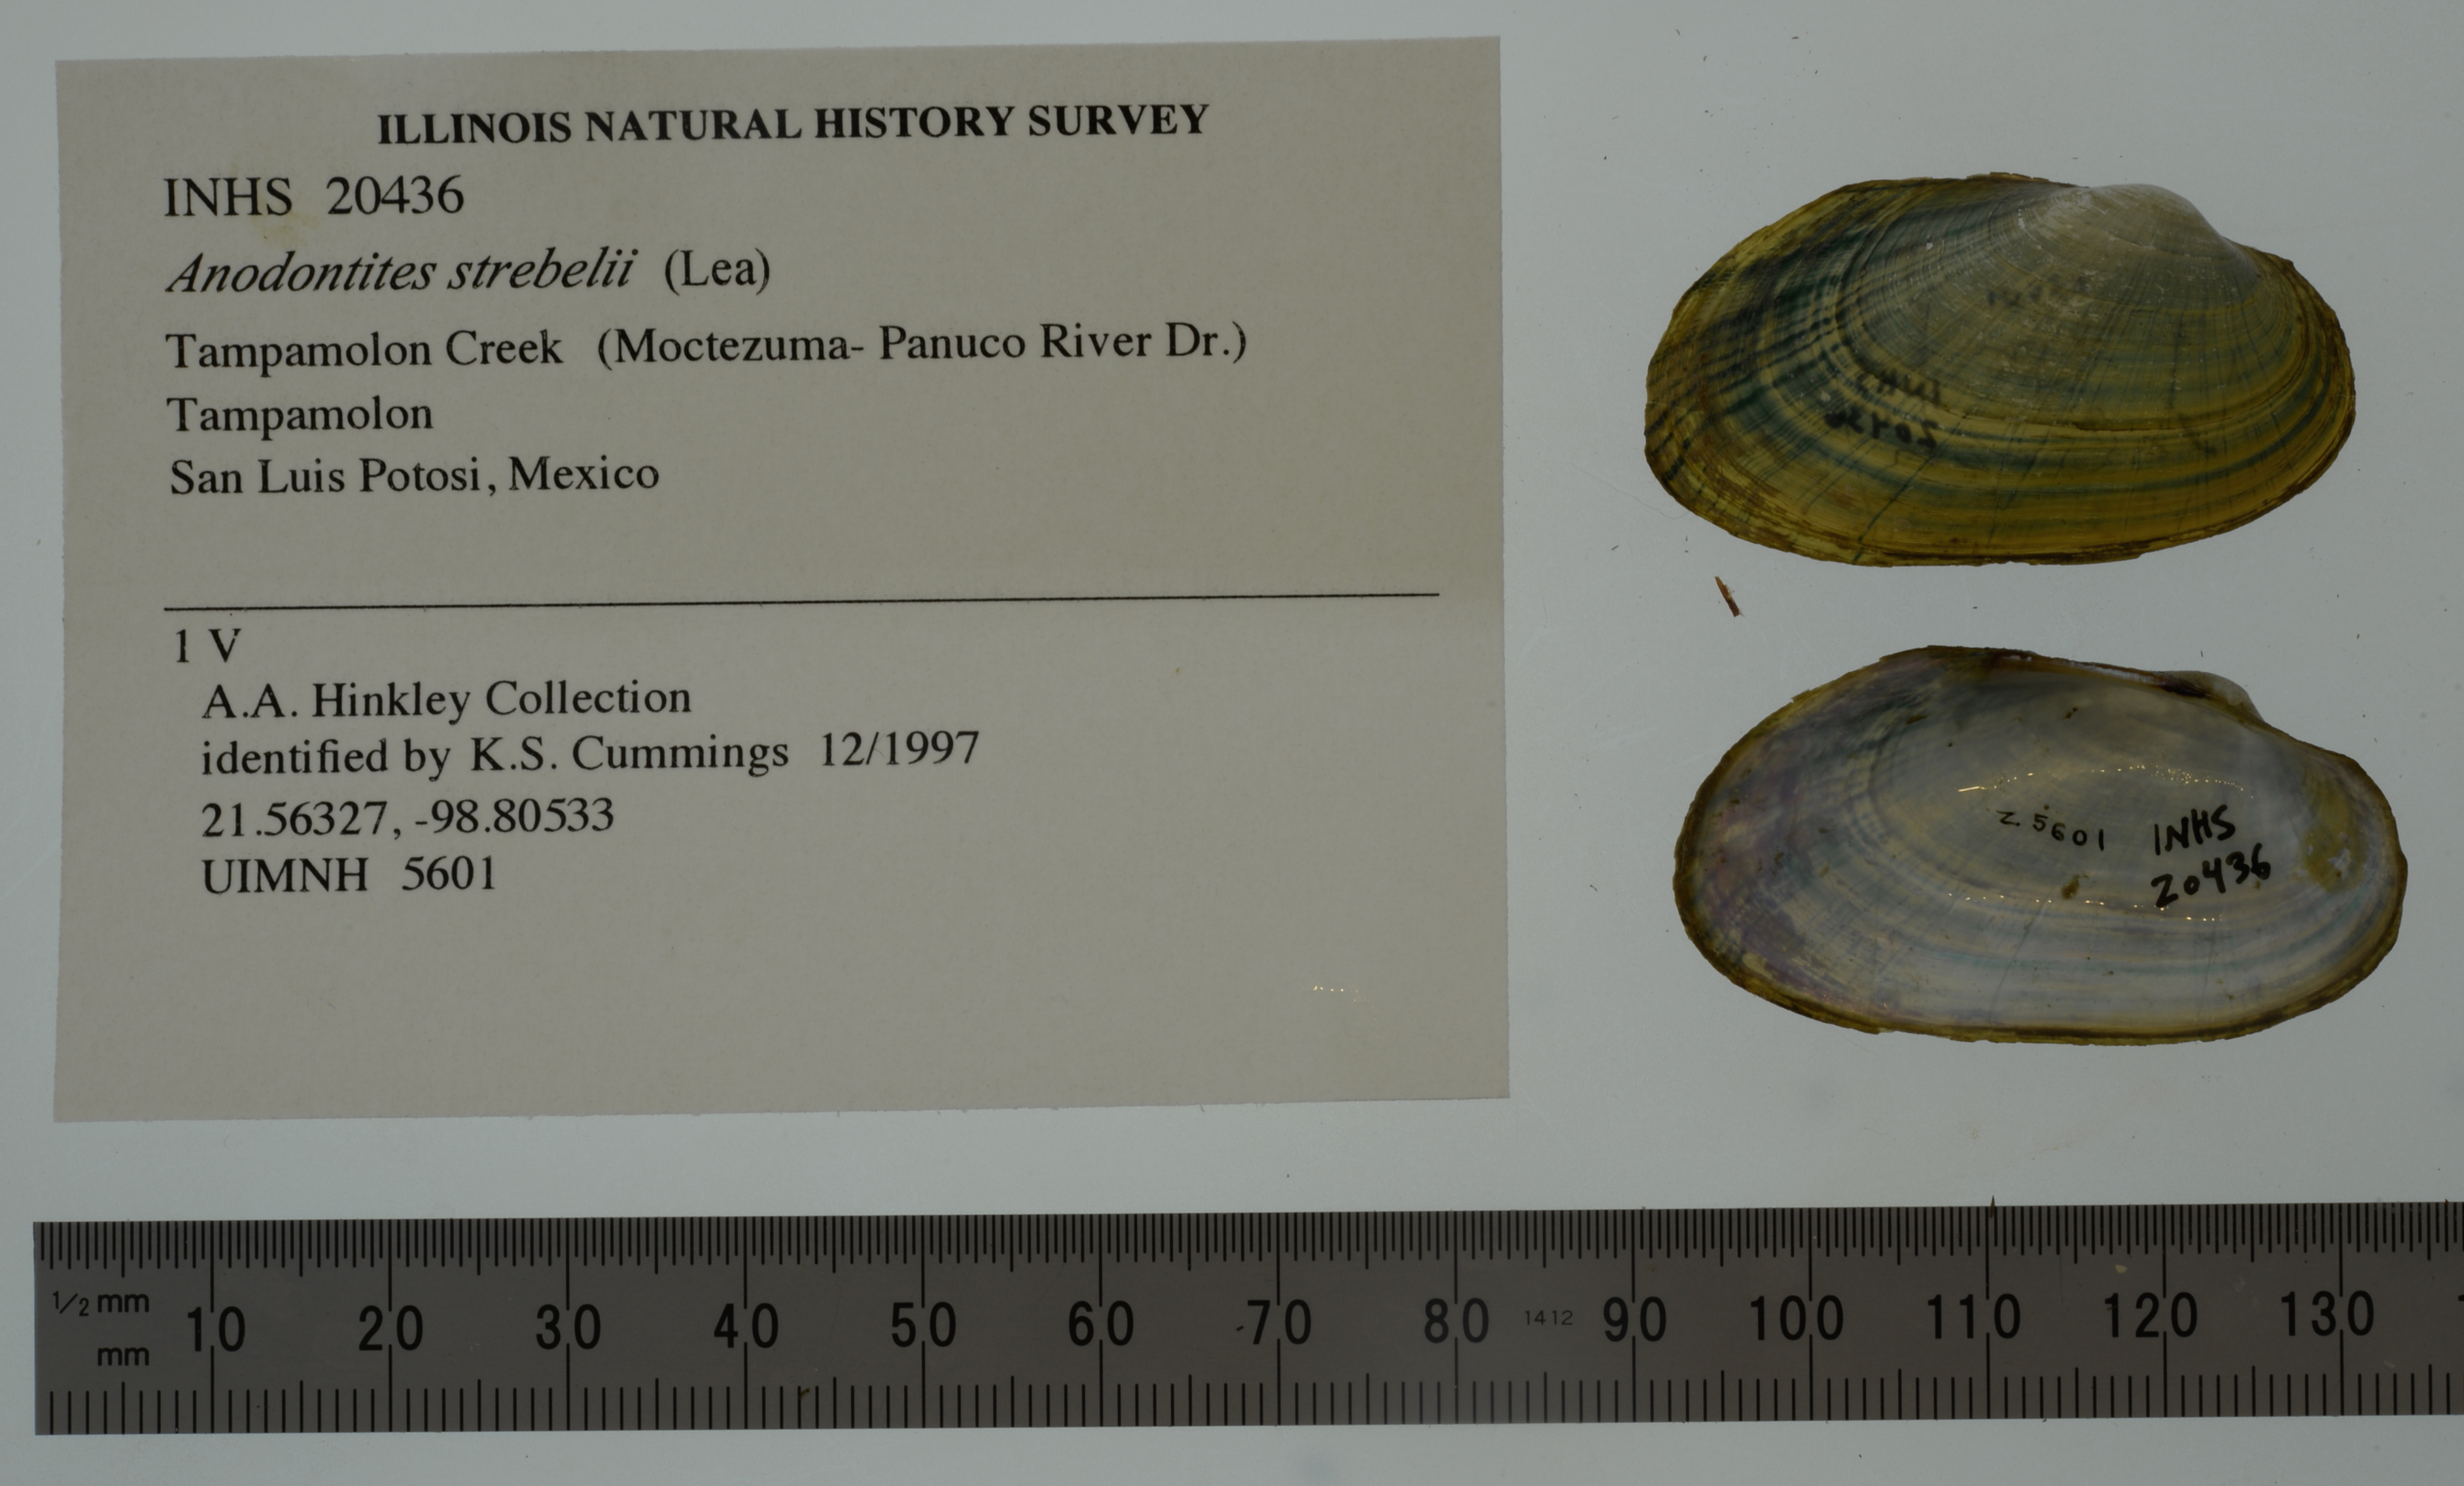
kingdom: Animalia
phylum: Mollusca
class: Bivalvia
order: Unionida
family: Mycetopodidae
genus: Anodontites
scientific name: Anodontites cylindracea
